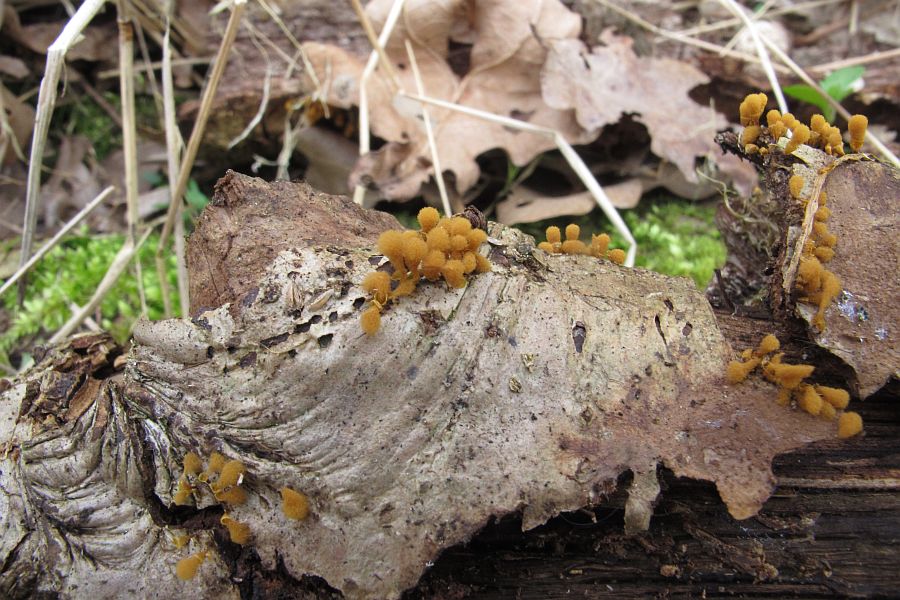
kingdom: Protozoa
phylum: Mycetozoa
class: Myxomycetes
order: Trichiales
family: Arcyriaceae
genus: Hemitrichia
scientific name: Hemitrichia clavata
